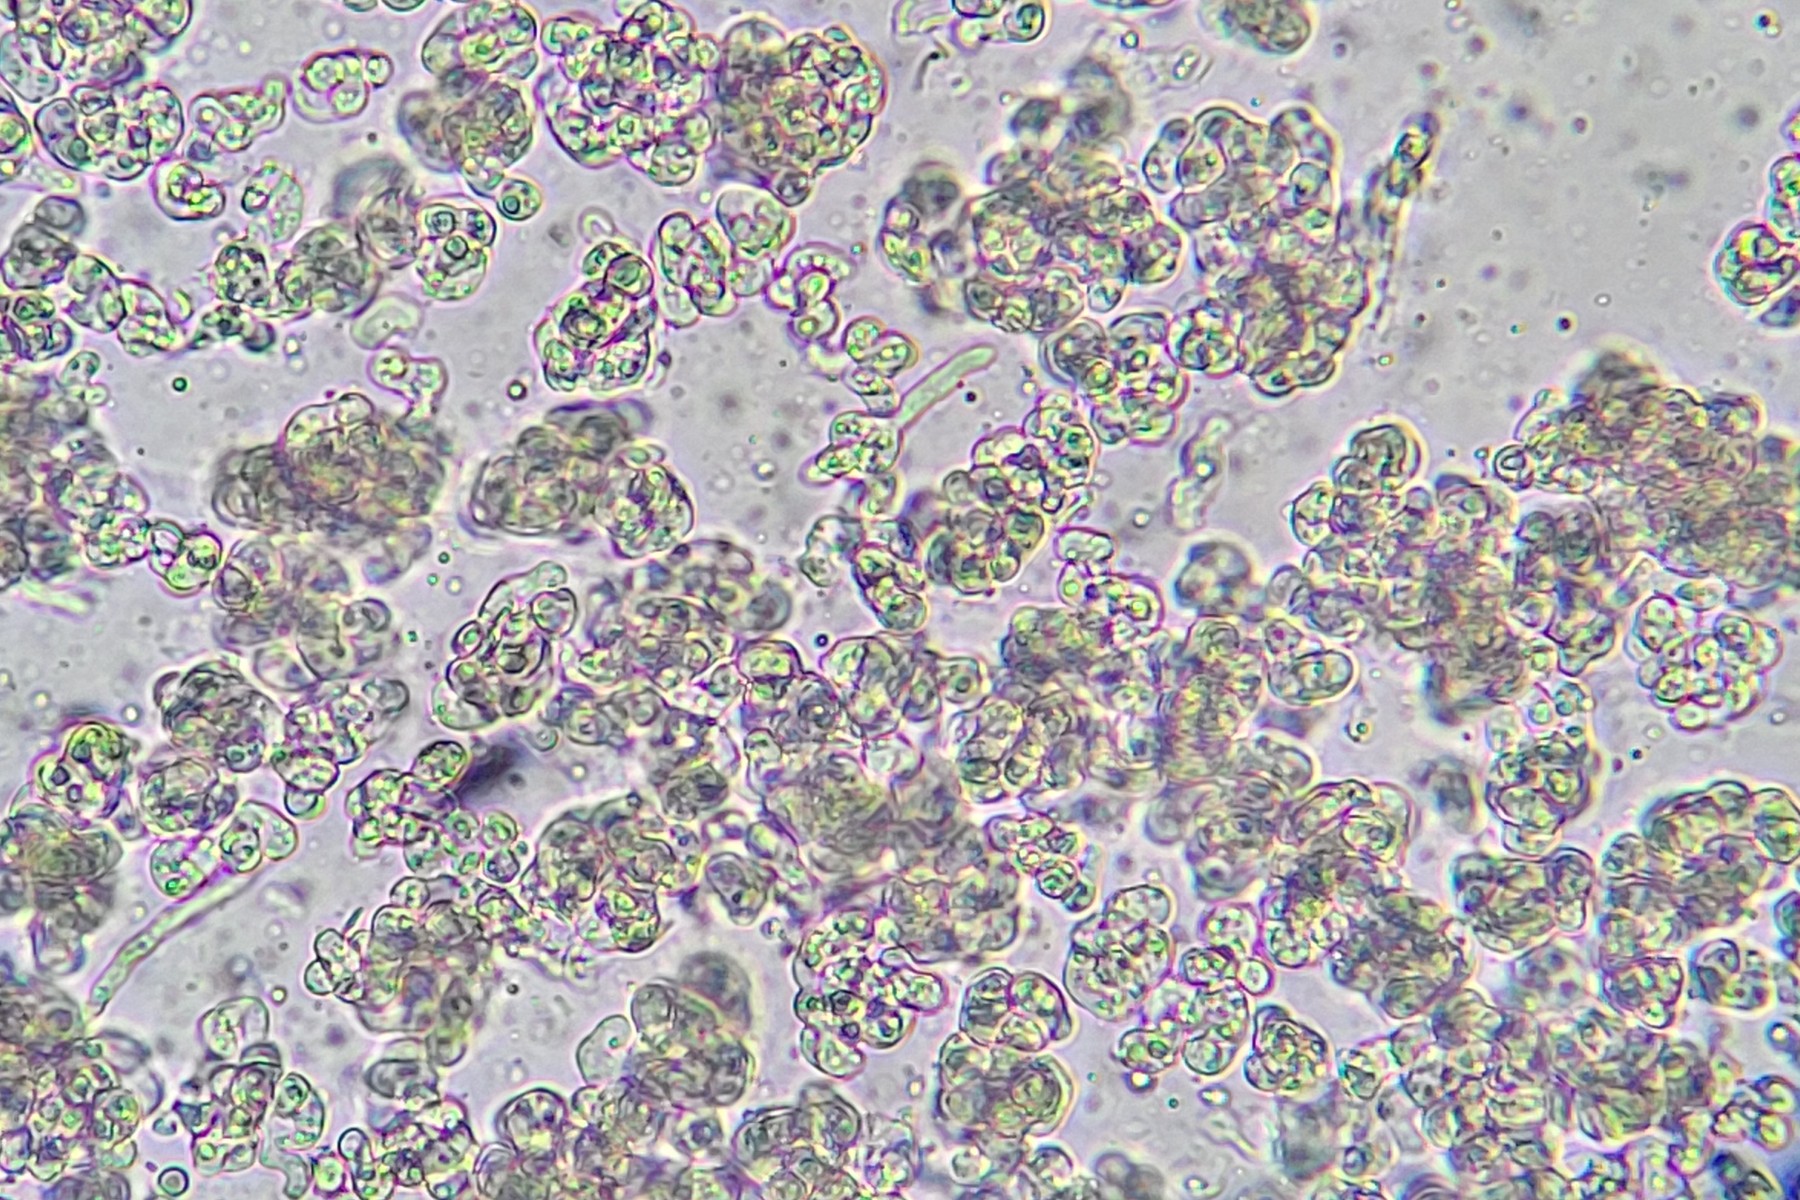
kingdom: Fungi
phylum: Ascomycota
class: Sordariomycetes
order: Hypocreales
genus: Illosporiopsis
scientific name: Illosporiopsis christiansenii
